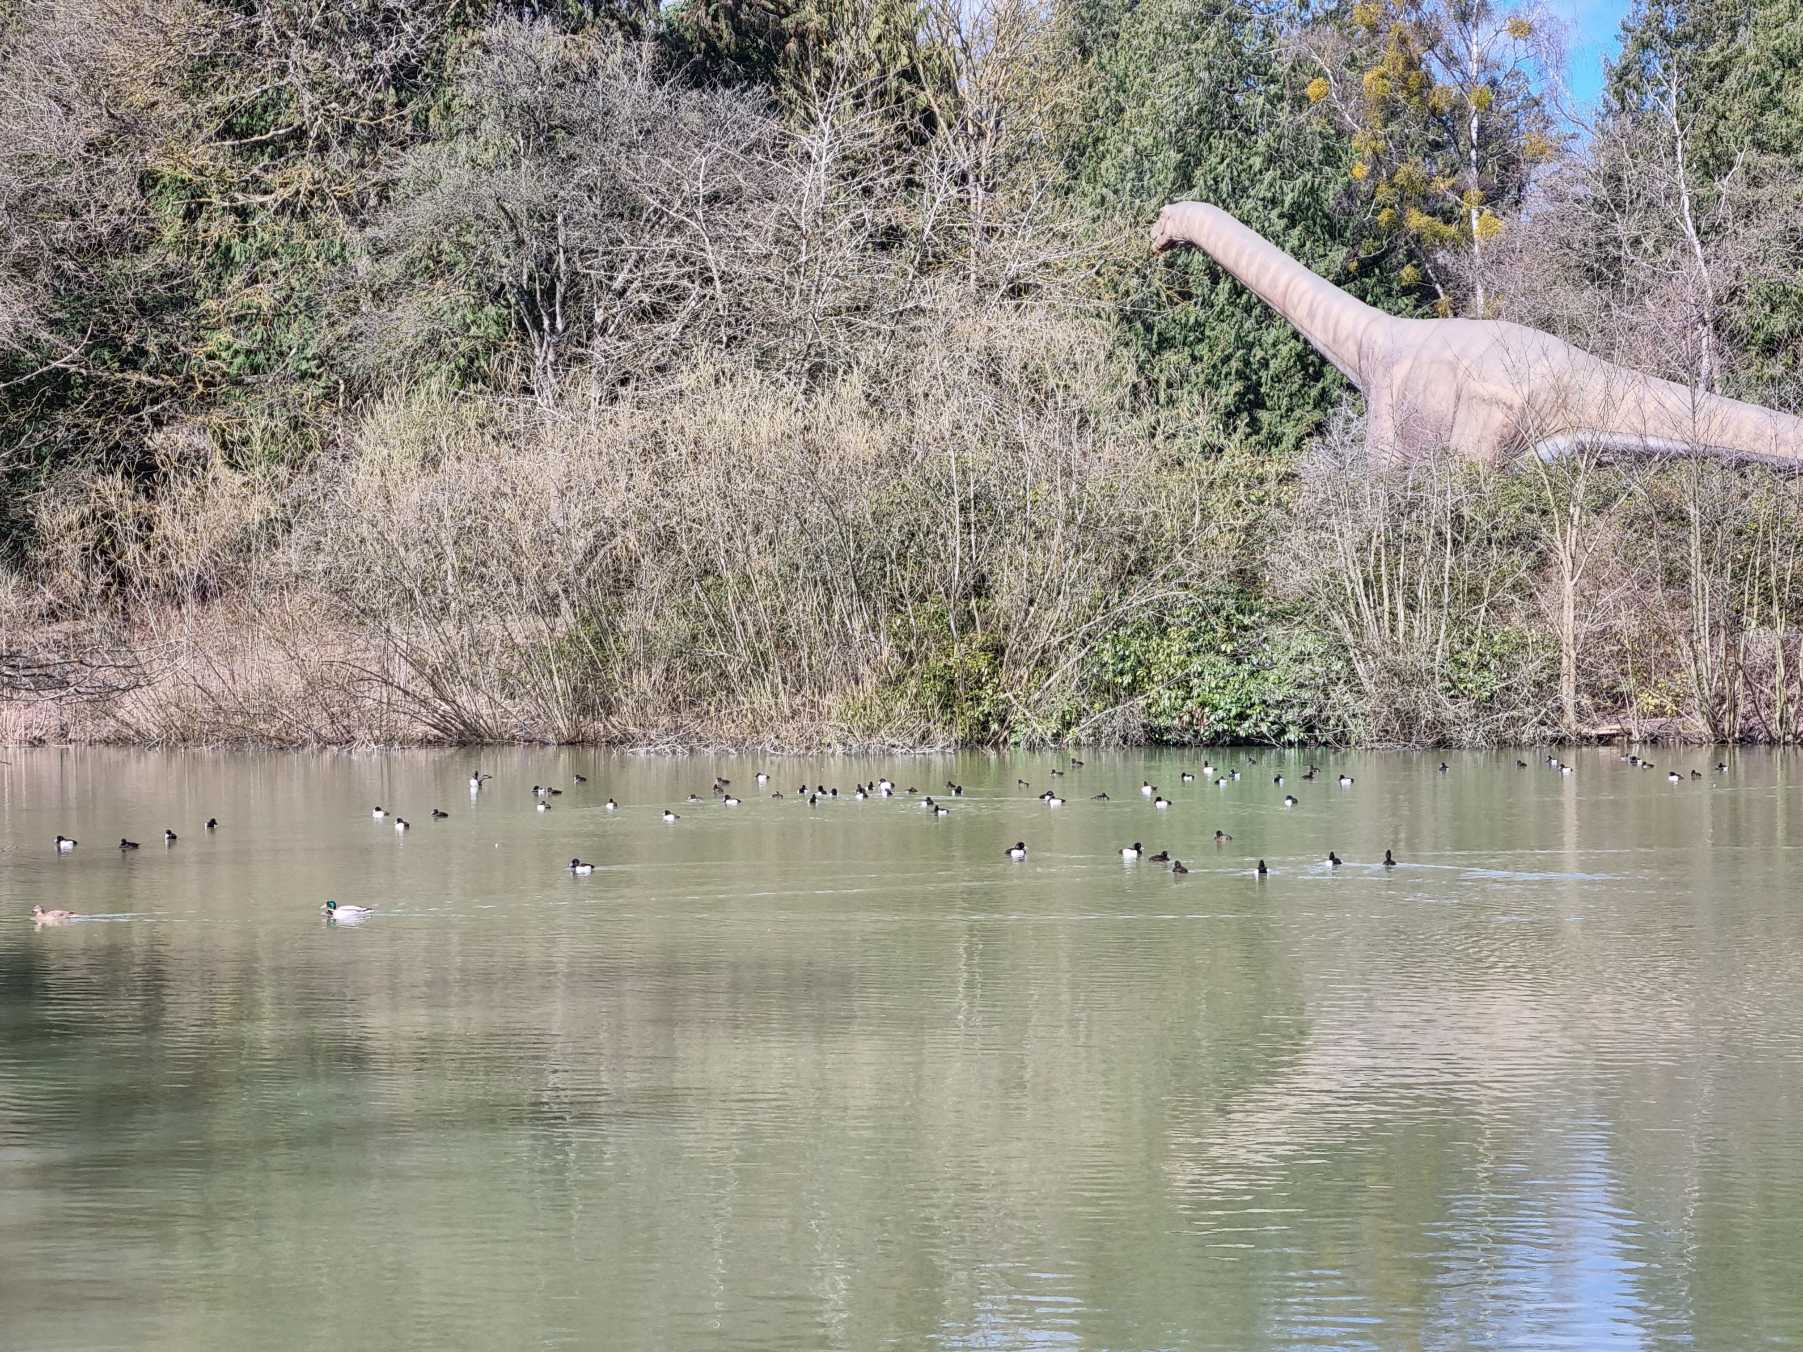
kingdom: Animalia
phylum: Chordata
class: Aves
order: Anseriformes
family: Anatidae
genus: Aythya
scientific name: Aythya fuligula
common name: Troldand
